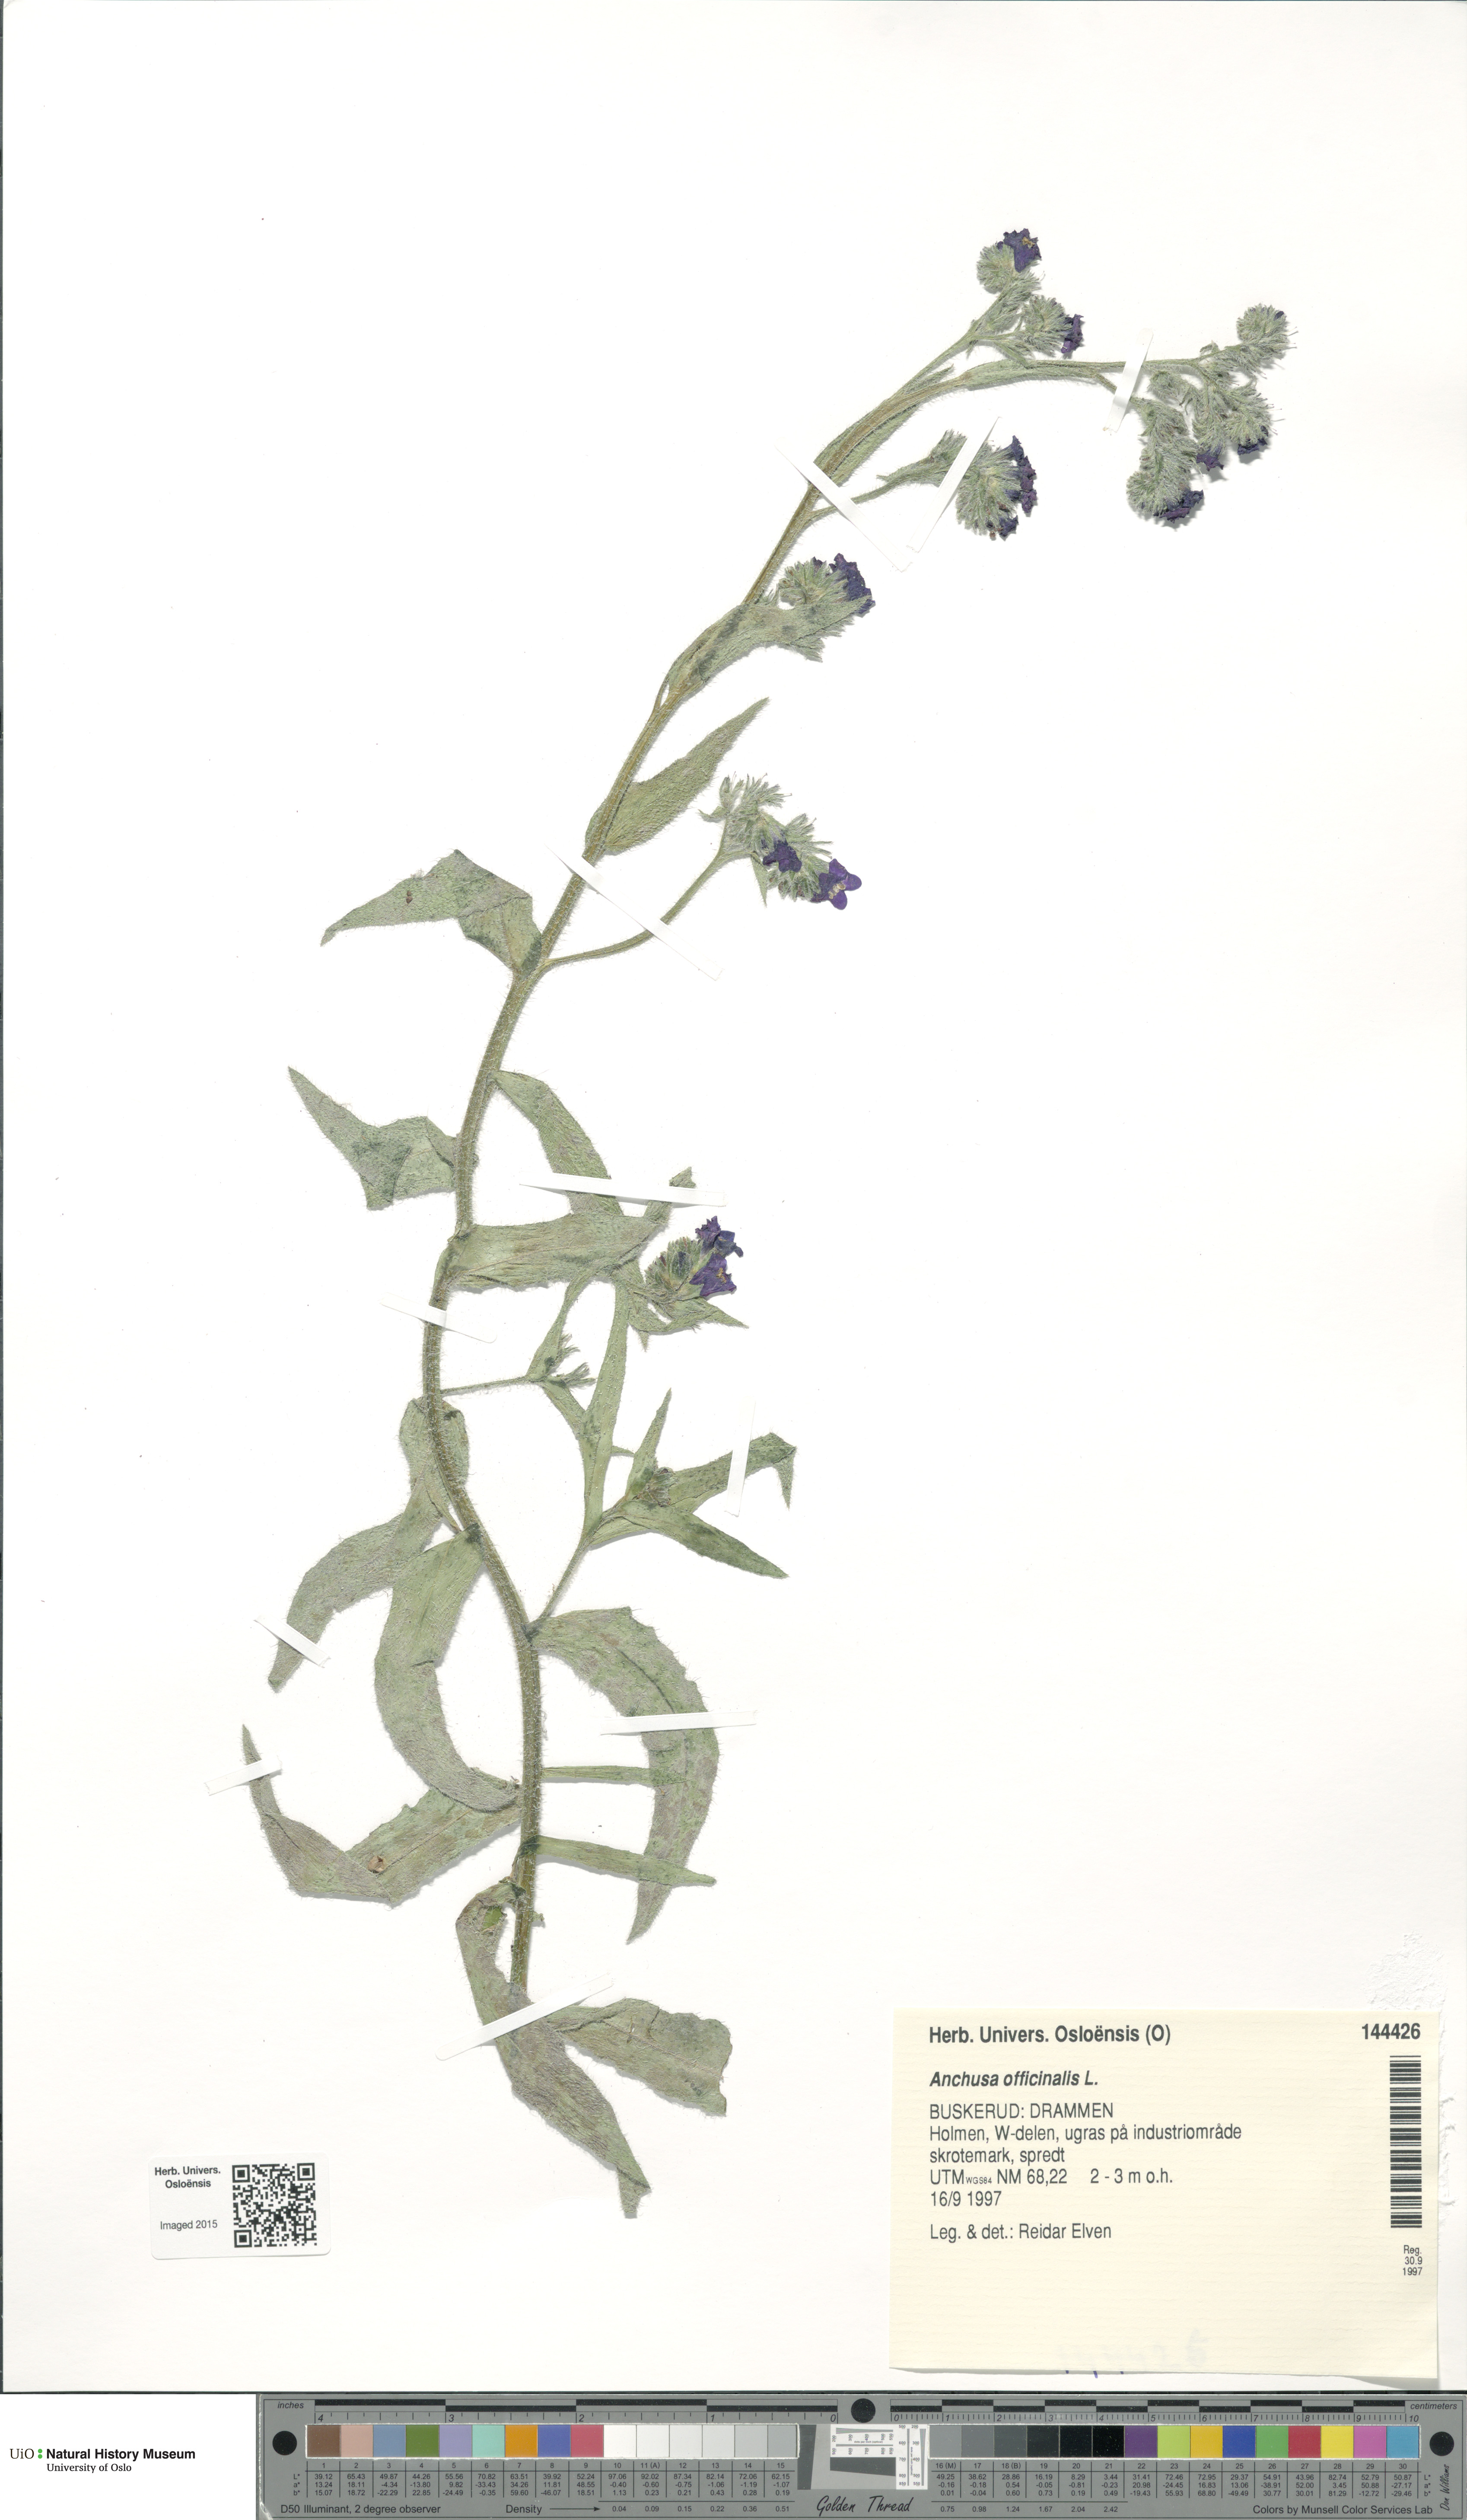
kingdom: Plantae
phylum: Tracheophyta
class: Magnoliopsida
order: Boraginales
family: Boraginaceae
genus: Anchusa
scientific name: Anchusa officinalis
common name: Alkanet
